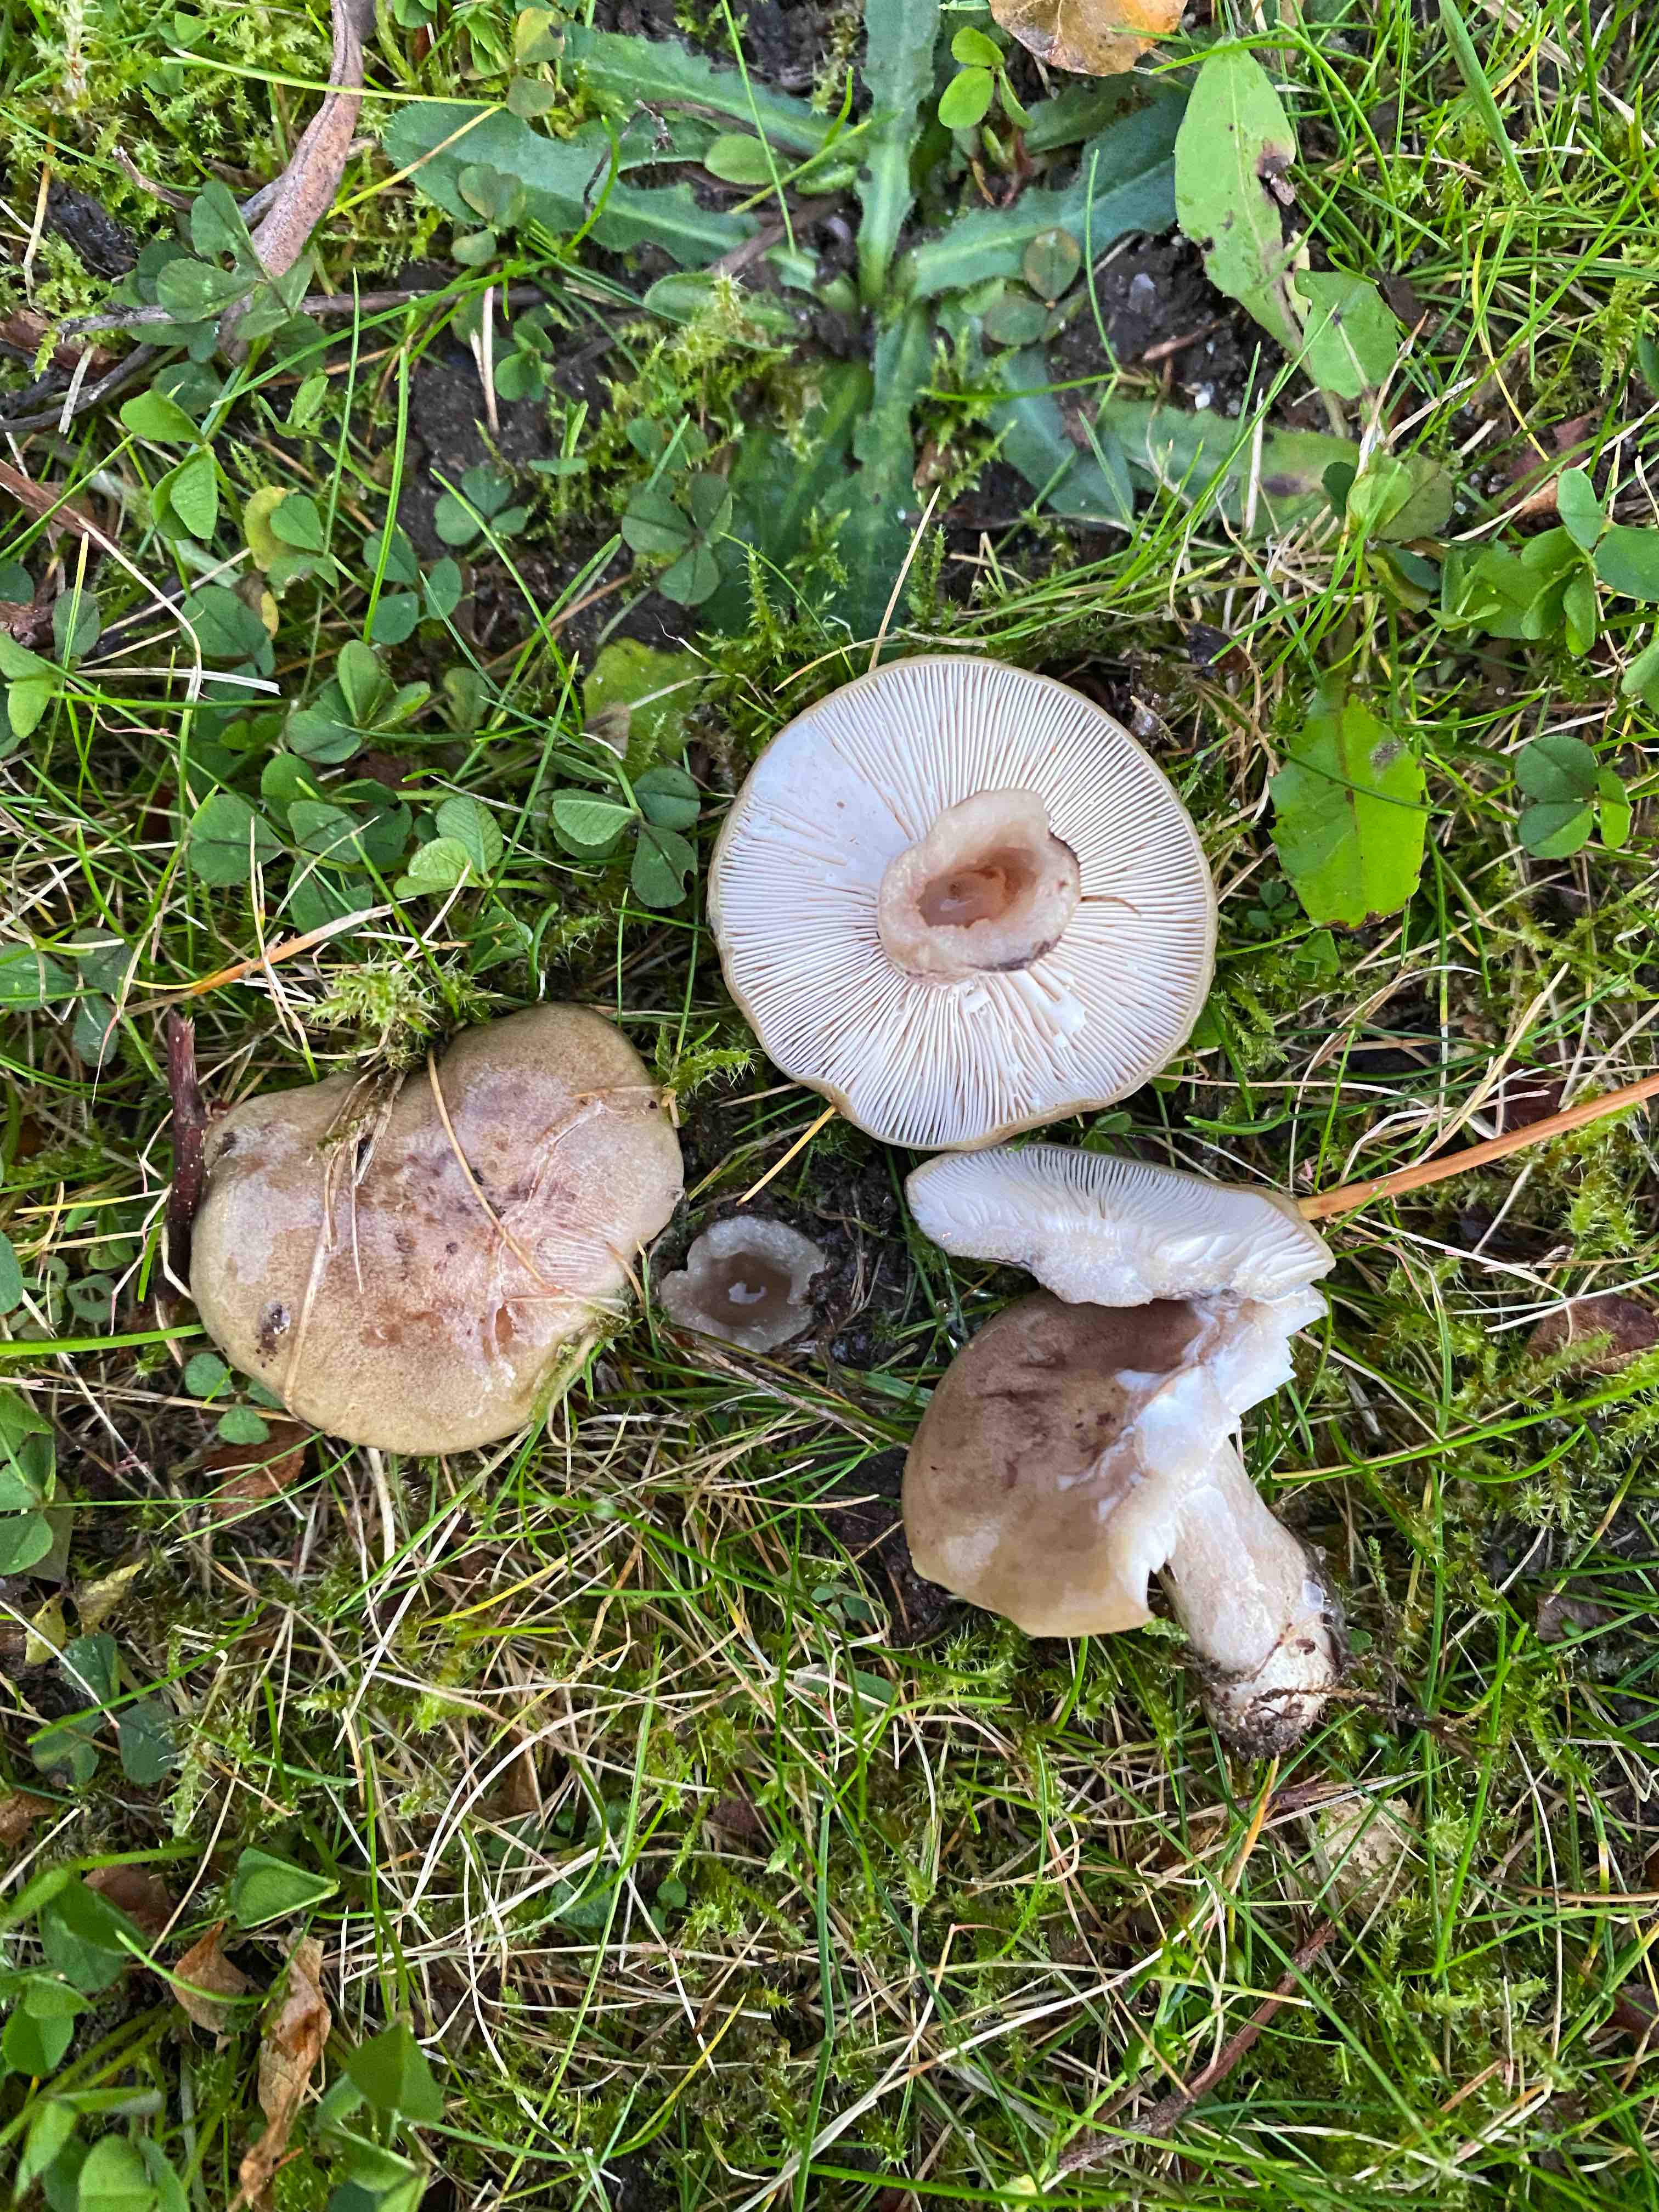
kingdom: Fungi
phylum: Basidiomycota
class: Agaricomycetes
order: Russulales
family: Russulaceae
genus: Lactarius
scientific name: Lactarius blennius
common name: dråbeplettet mælkehat
